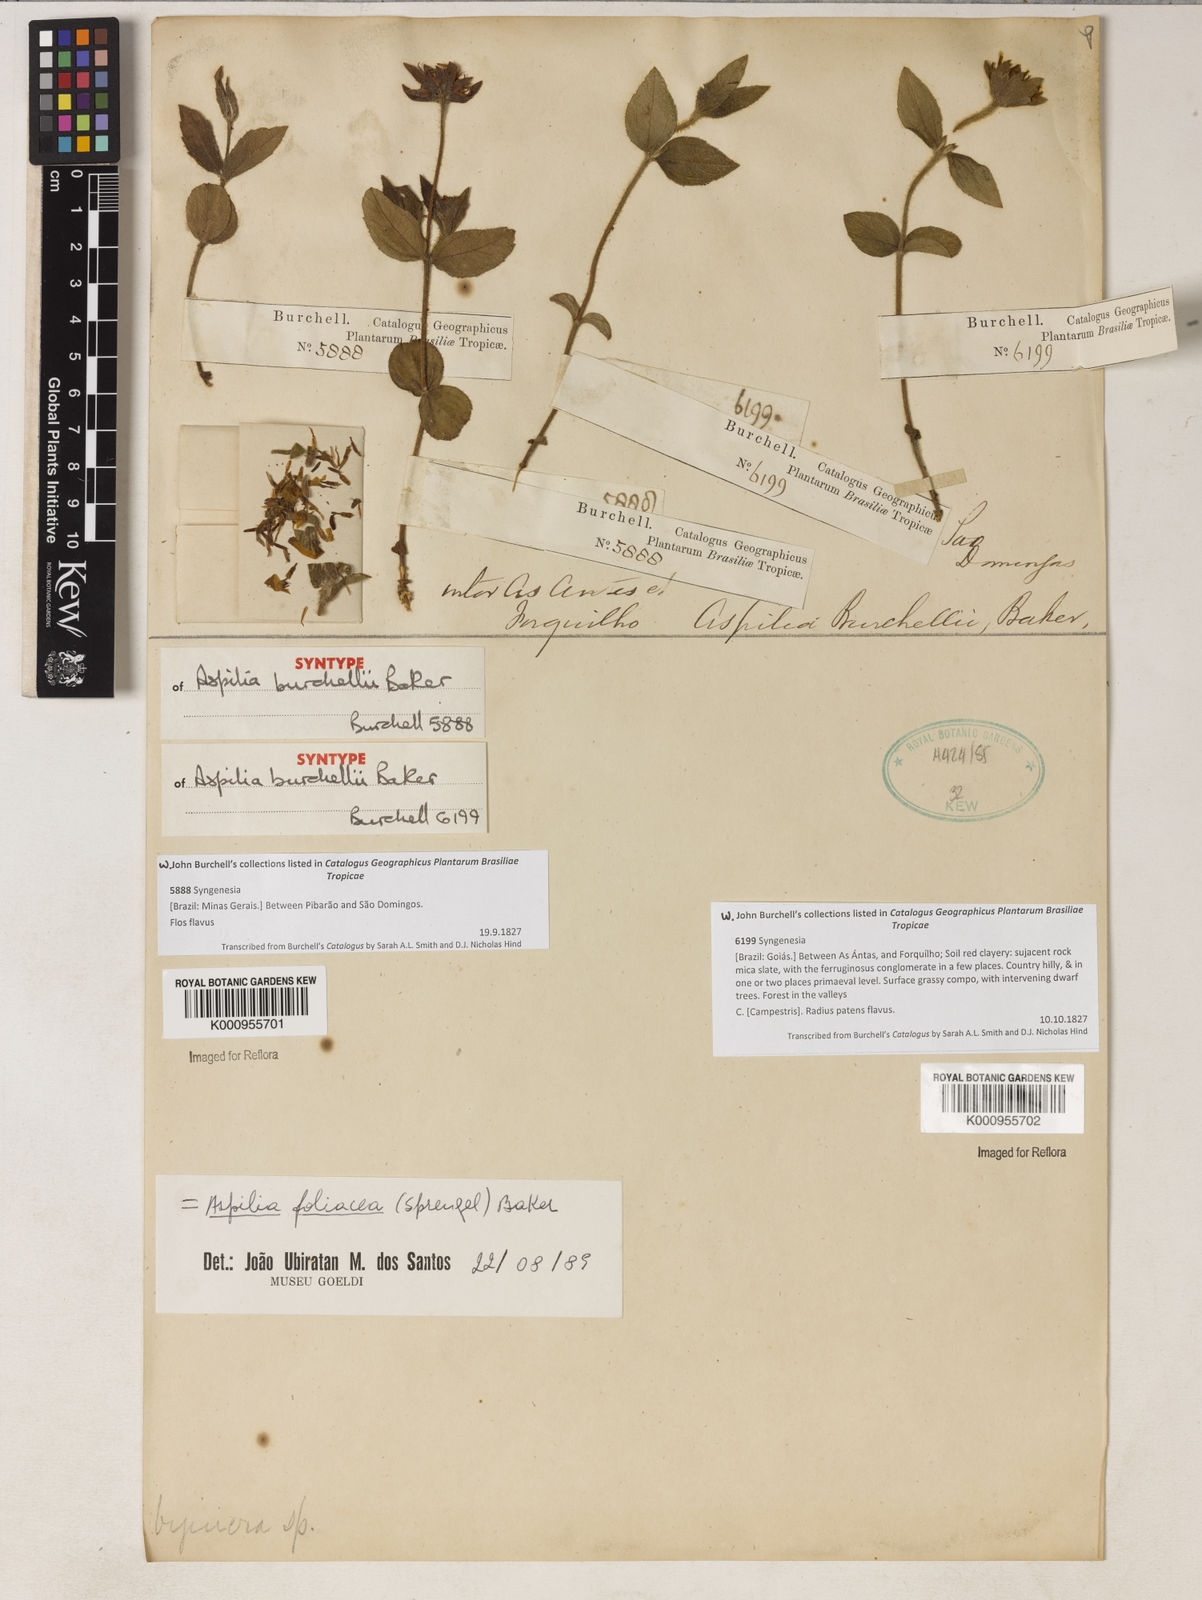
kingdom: Plantae
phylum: Tracheophyta
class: Magnoliopsida
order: Asterales
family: Asteraceae
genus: Wedelia
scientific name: Wedelia foliacea
